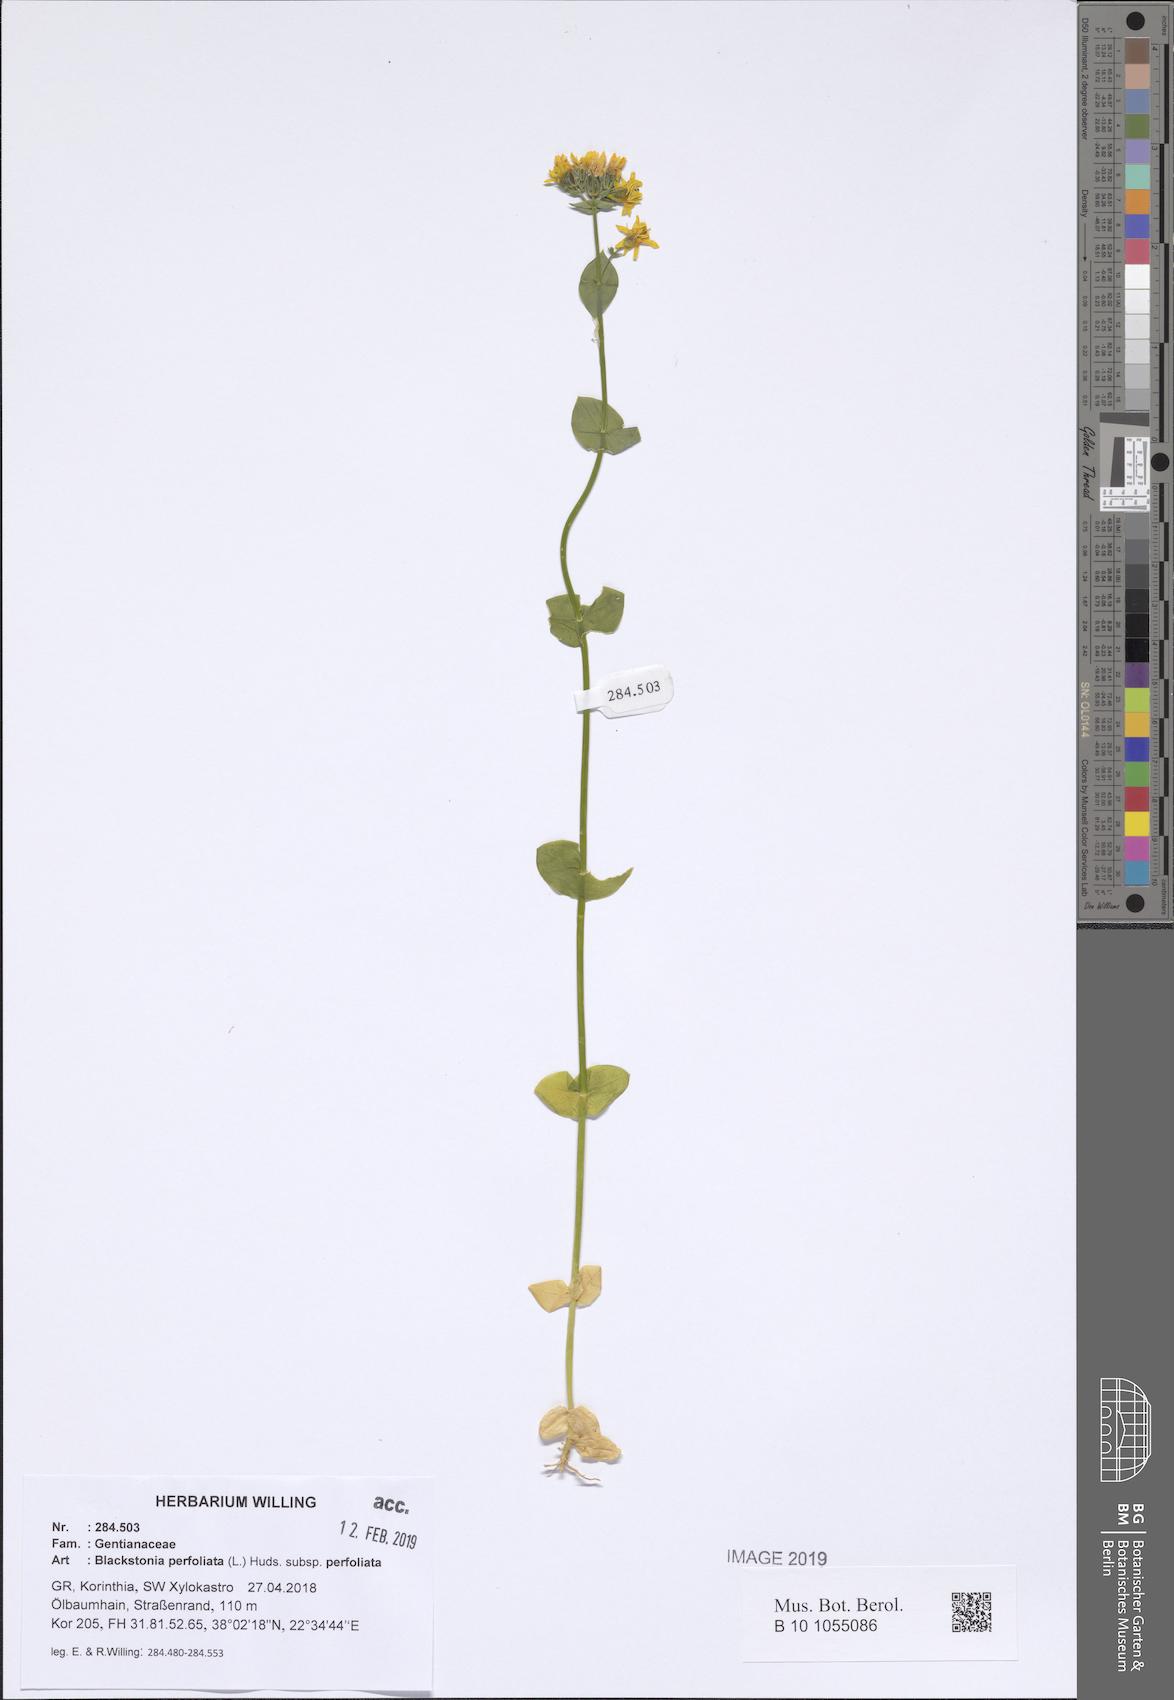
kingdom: Plantae
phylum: Tracheophyta
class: Magnoliopsida
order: Gentianales
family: Gentianaceae
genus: Blackstonia
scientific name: Blackstonia perfoliata
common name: Yellow-wort
